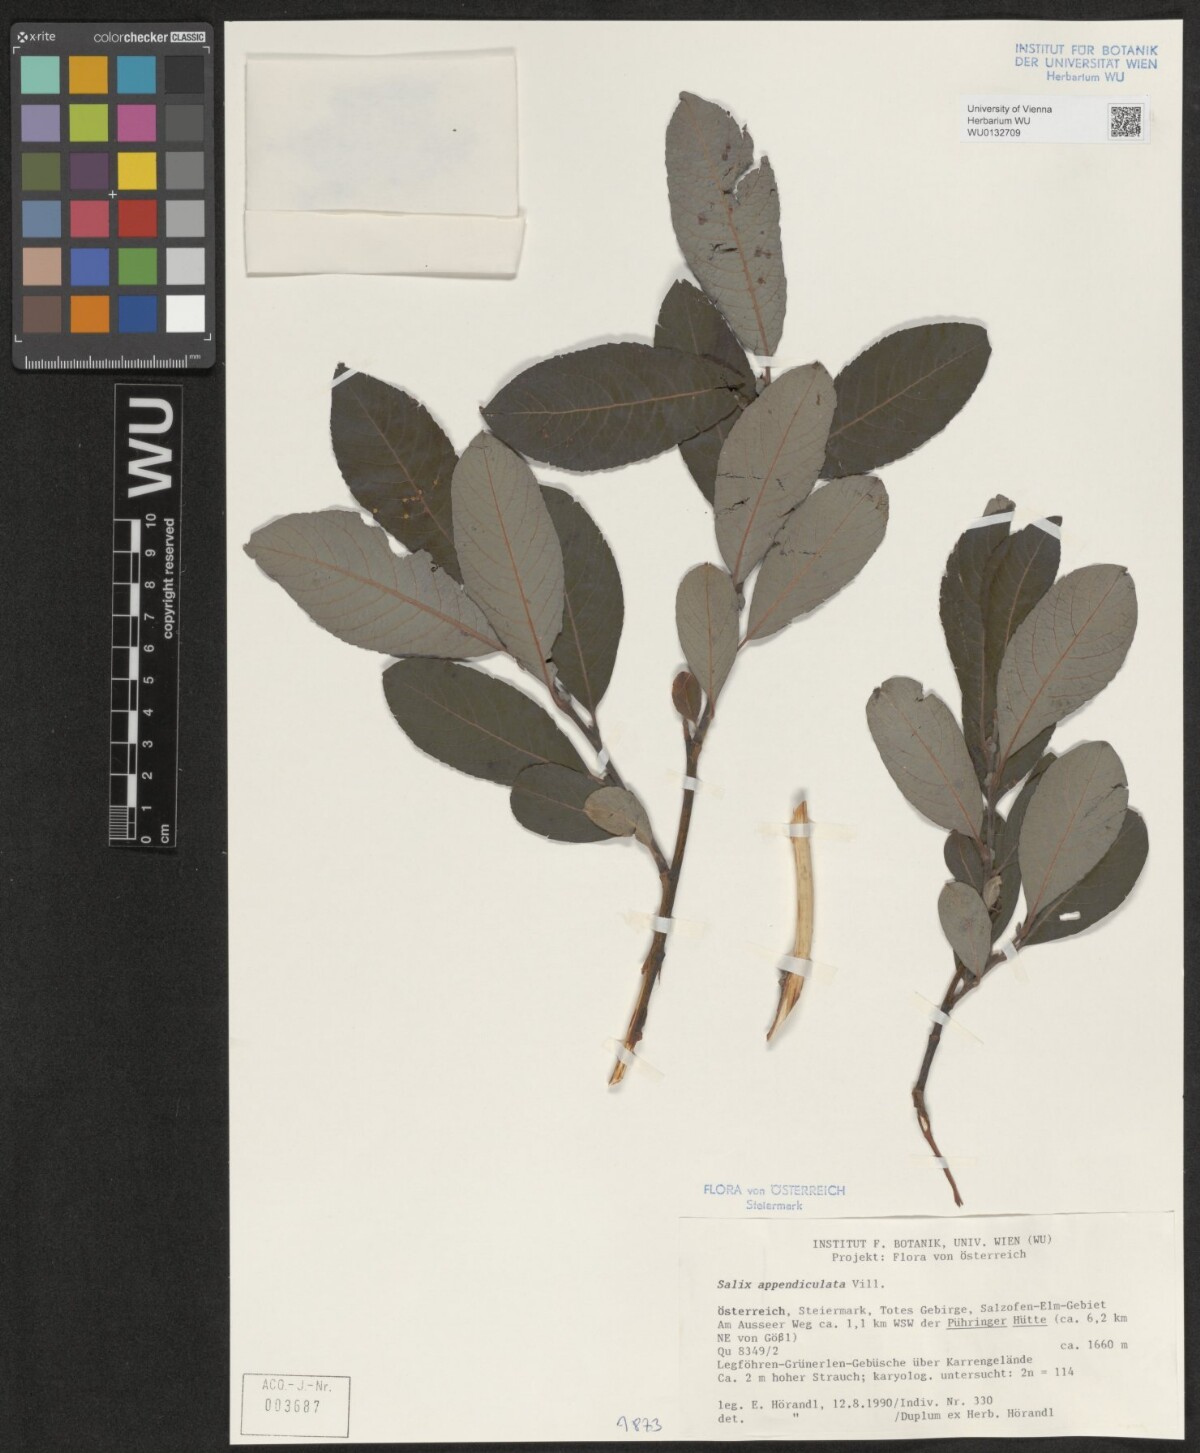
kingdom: Plantae
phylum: Tracheophyta
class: Magnoliopsida
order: Malpighiales
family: Salicaceae
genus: Salix
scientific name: Salix appendiculata
